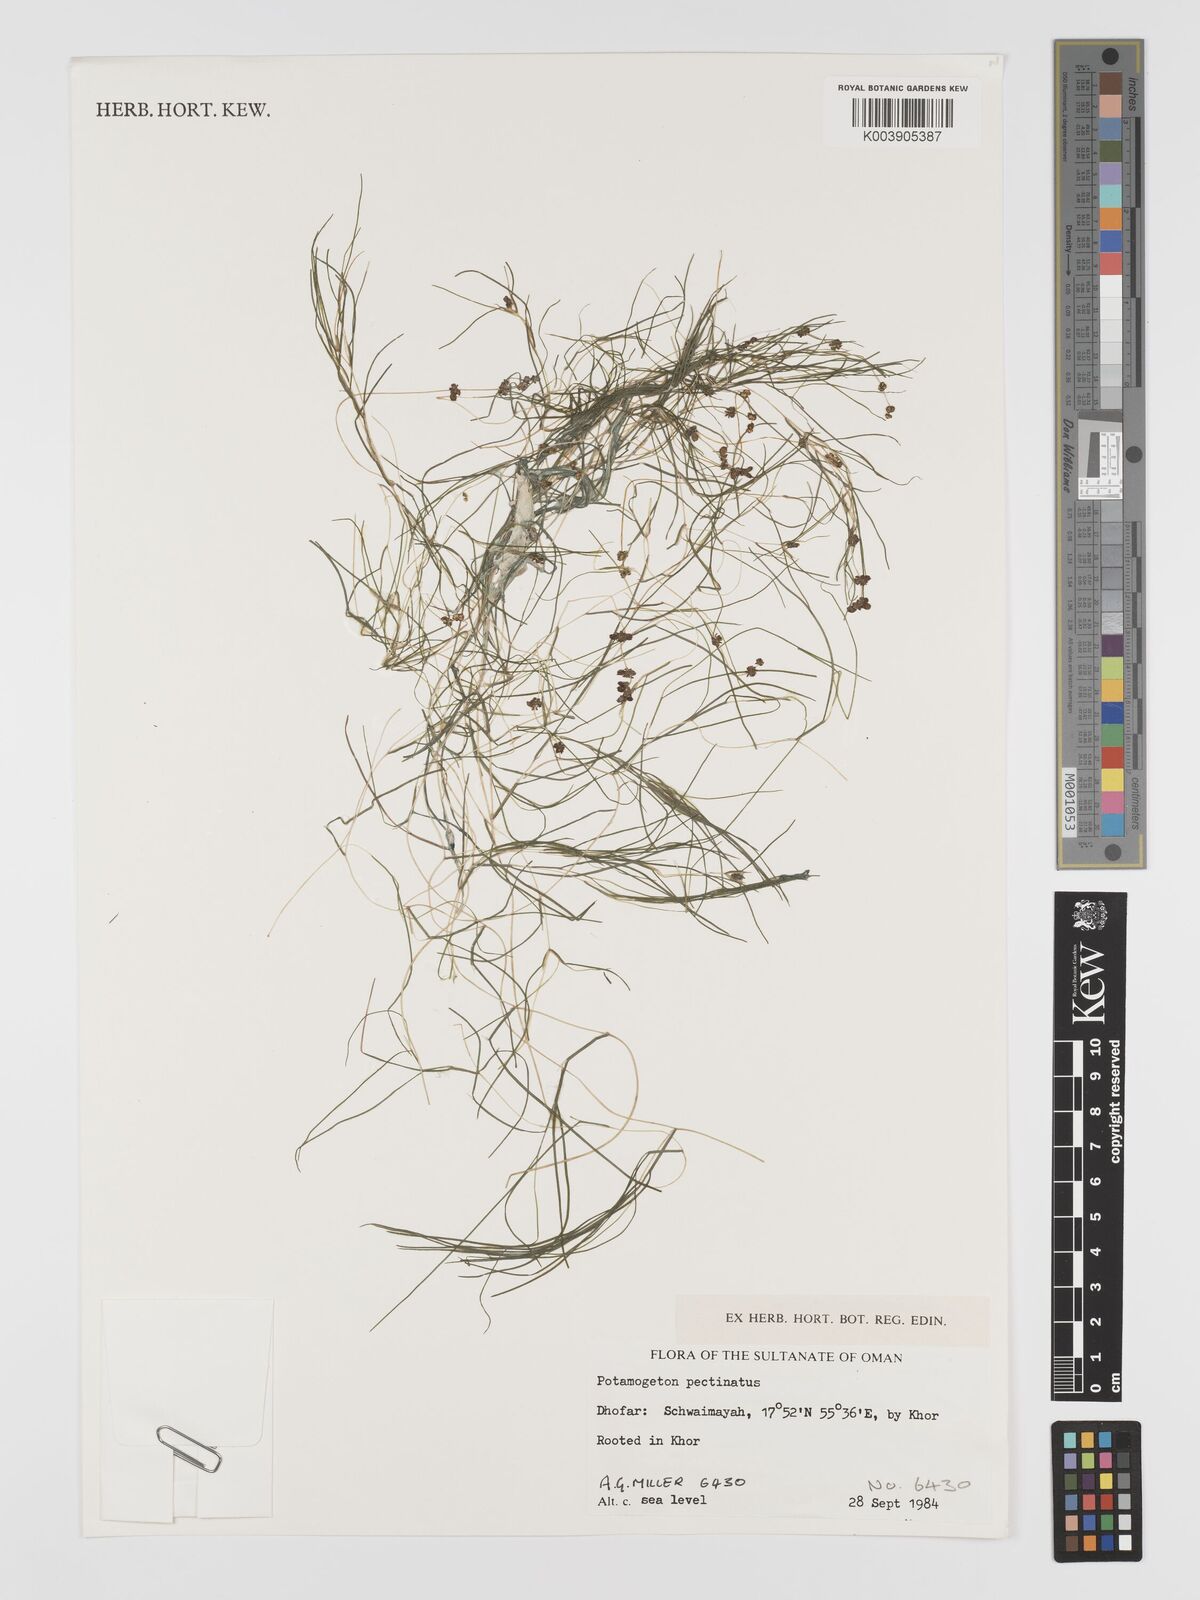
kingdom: Plantae
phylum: Tracheophyta
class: Liliopsida
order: Alismatales
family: Potamogetonaceae
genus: Stuckenia
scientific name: Stuckenia pectinata
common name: Sago pondweed
